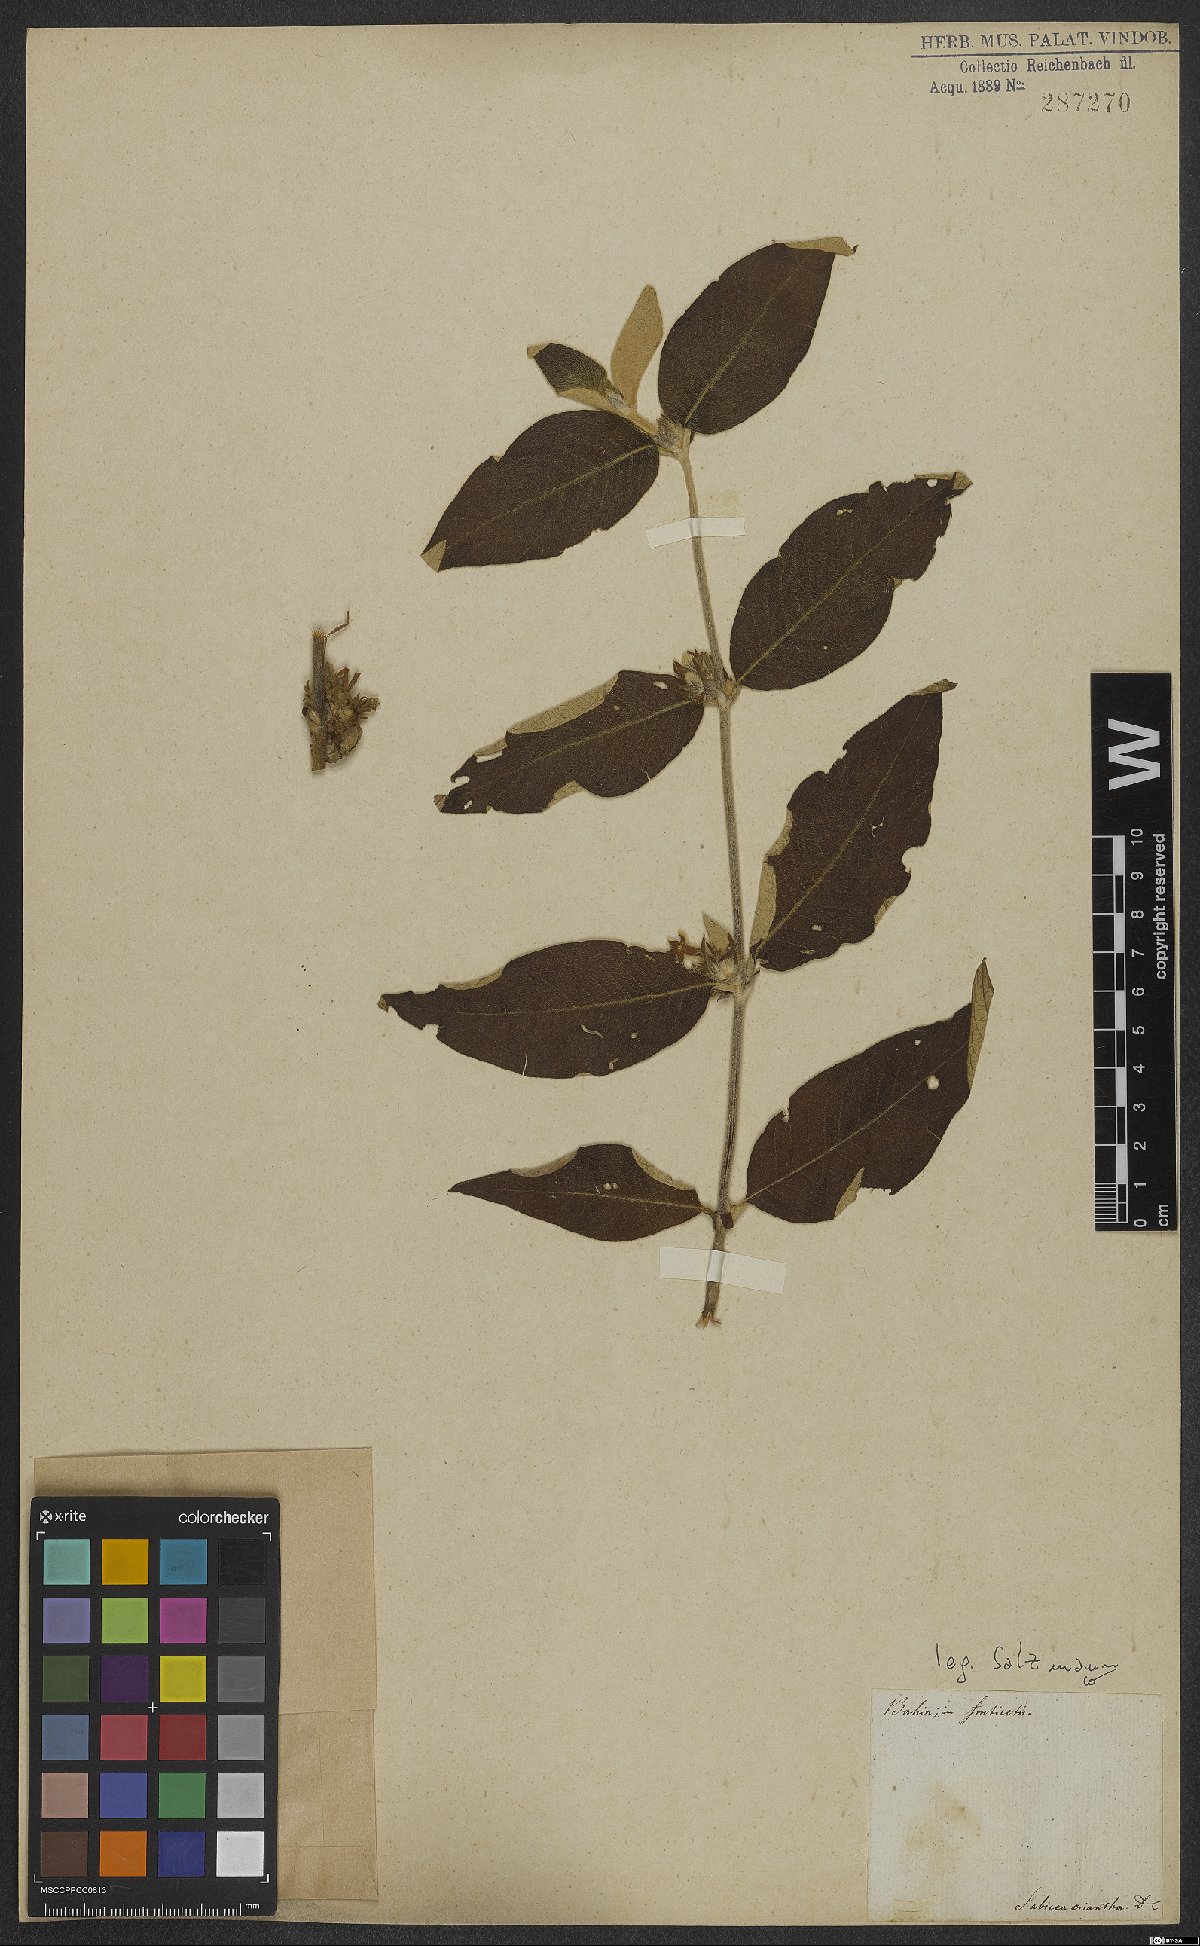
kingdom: Plantae
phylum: Tracheophyta
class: Magnoliopsida
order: Gentianales
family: Rubiaceae
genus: Sabicea
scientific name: Sabicea
